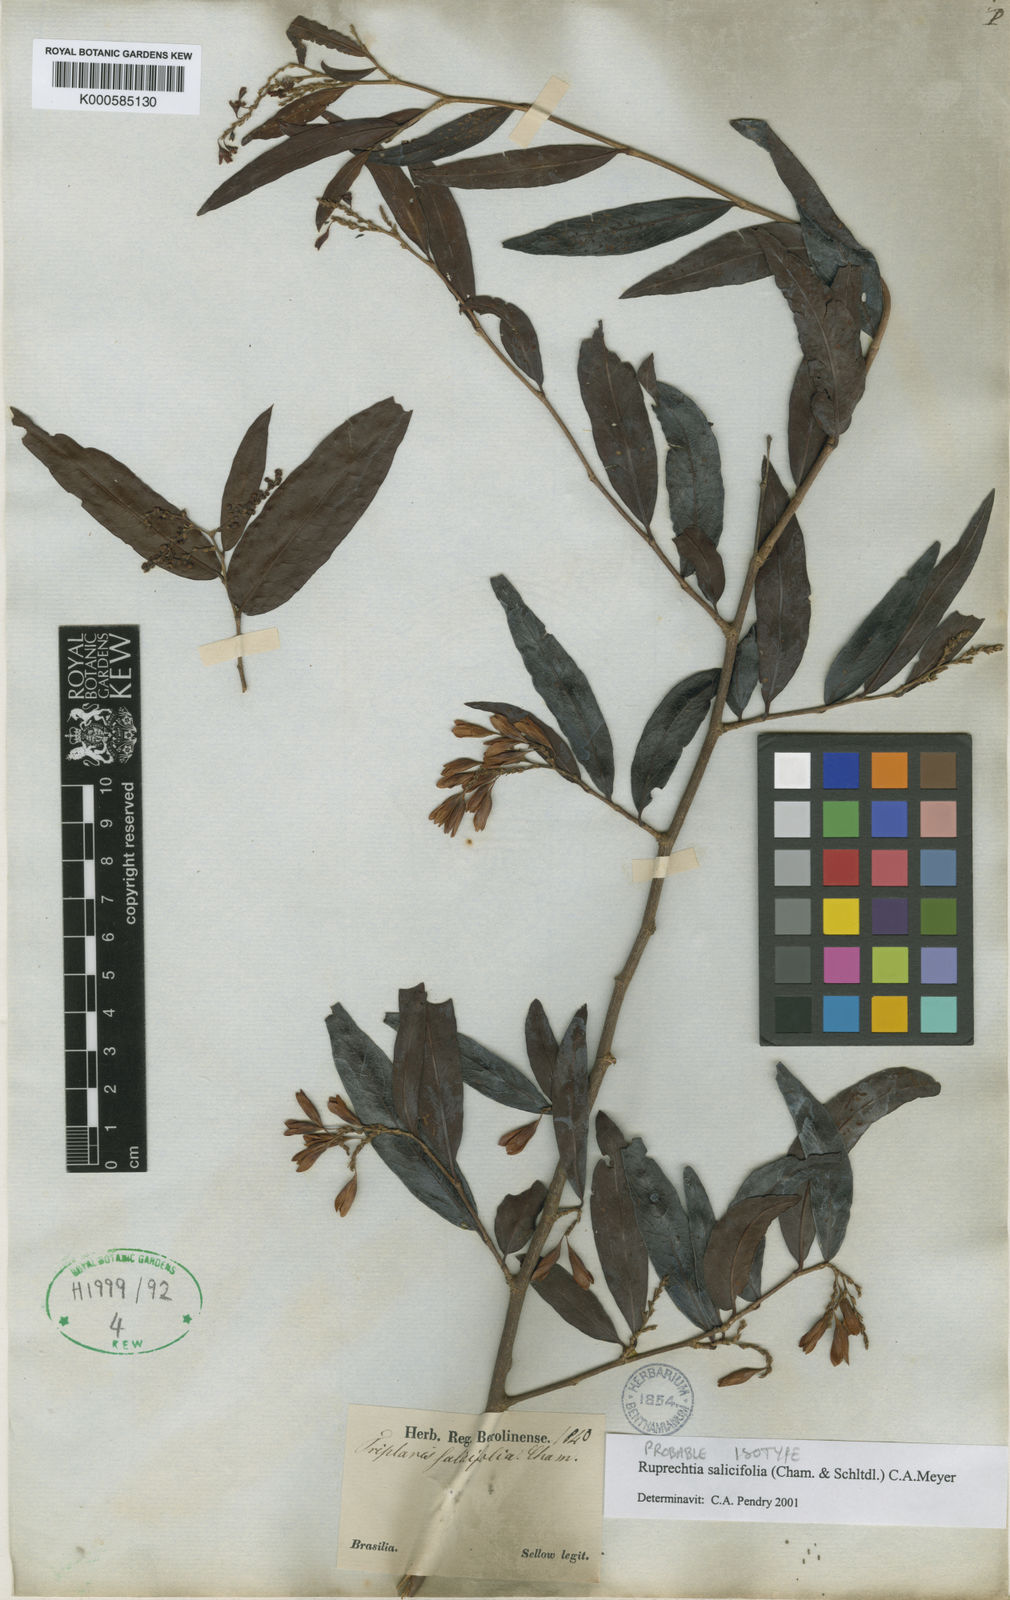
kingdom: Plantae
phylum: Tracheophyta
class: Magnoliopsida
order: Caryophyllales
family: Polygonaceae
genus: Ruprechtia
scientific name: Ruprechtia salicifolia
